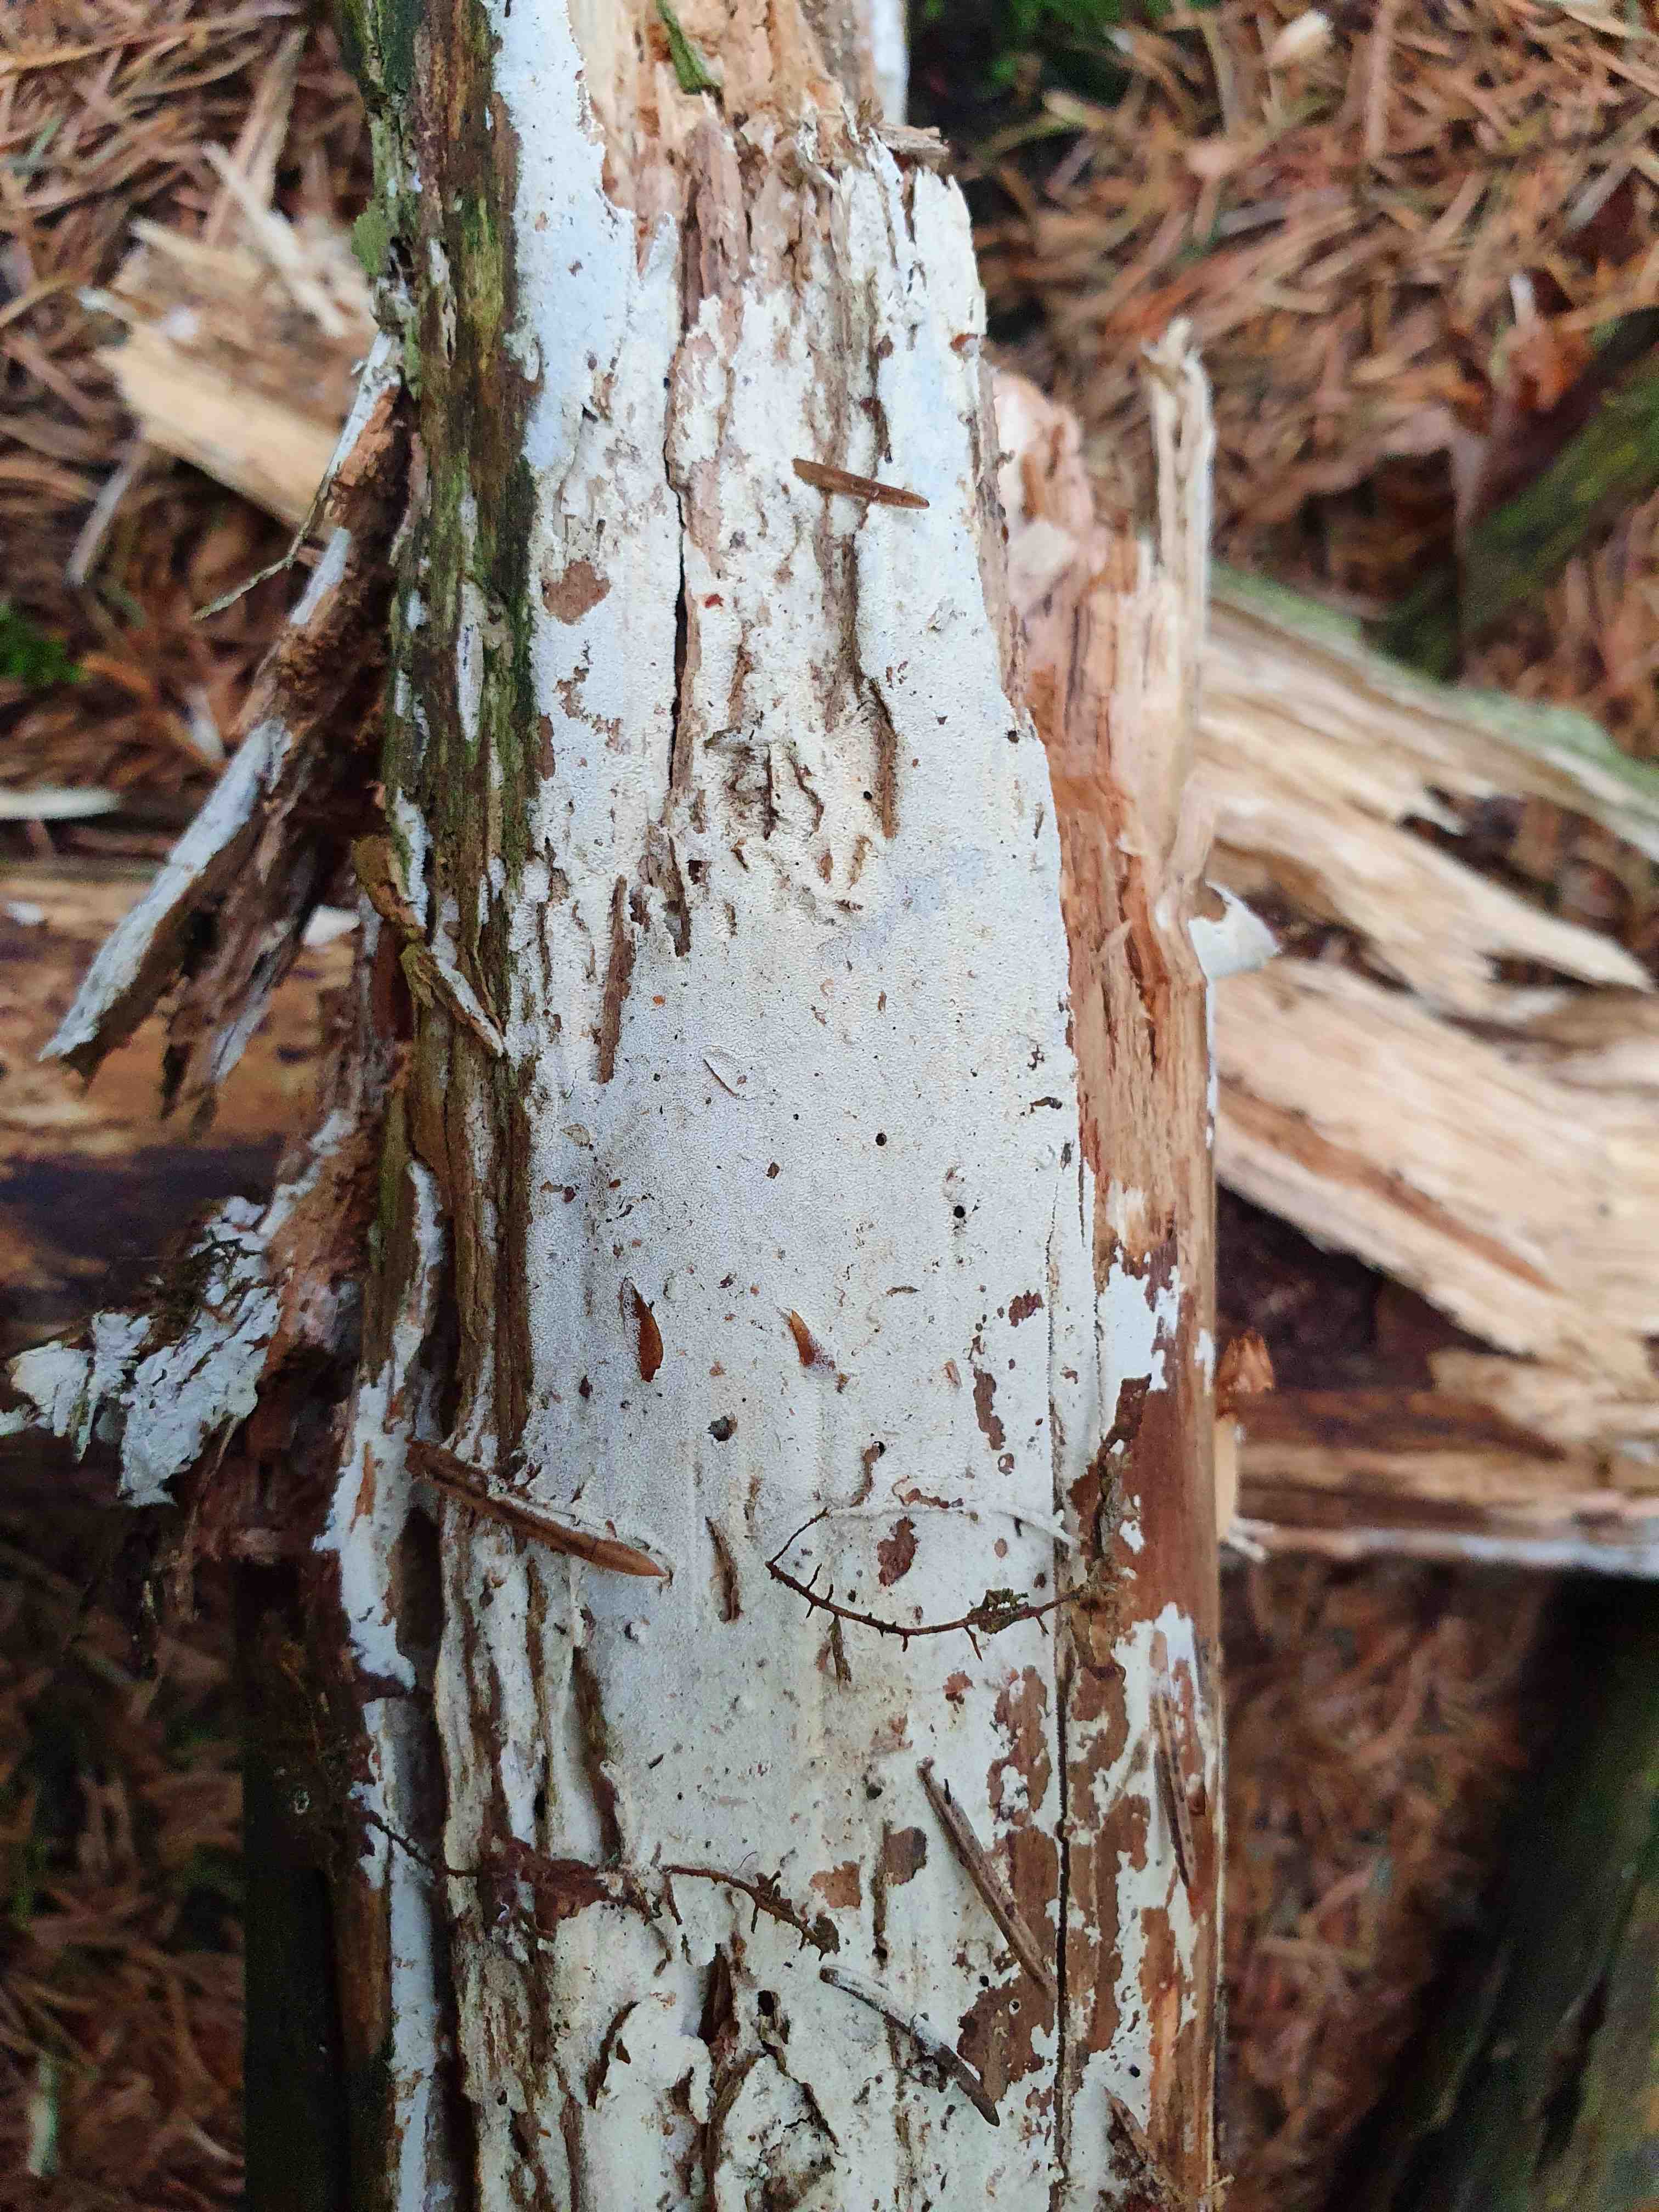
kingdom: Fungi
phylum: Basidiomycota
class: Agaricomycetes
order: Hymenochaetales
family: Schizoporaceae
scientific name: Schizoporaceae
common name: tandsvampfamilien
